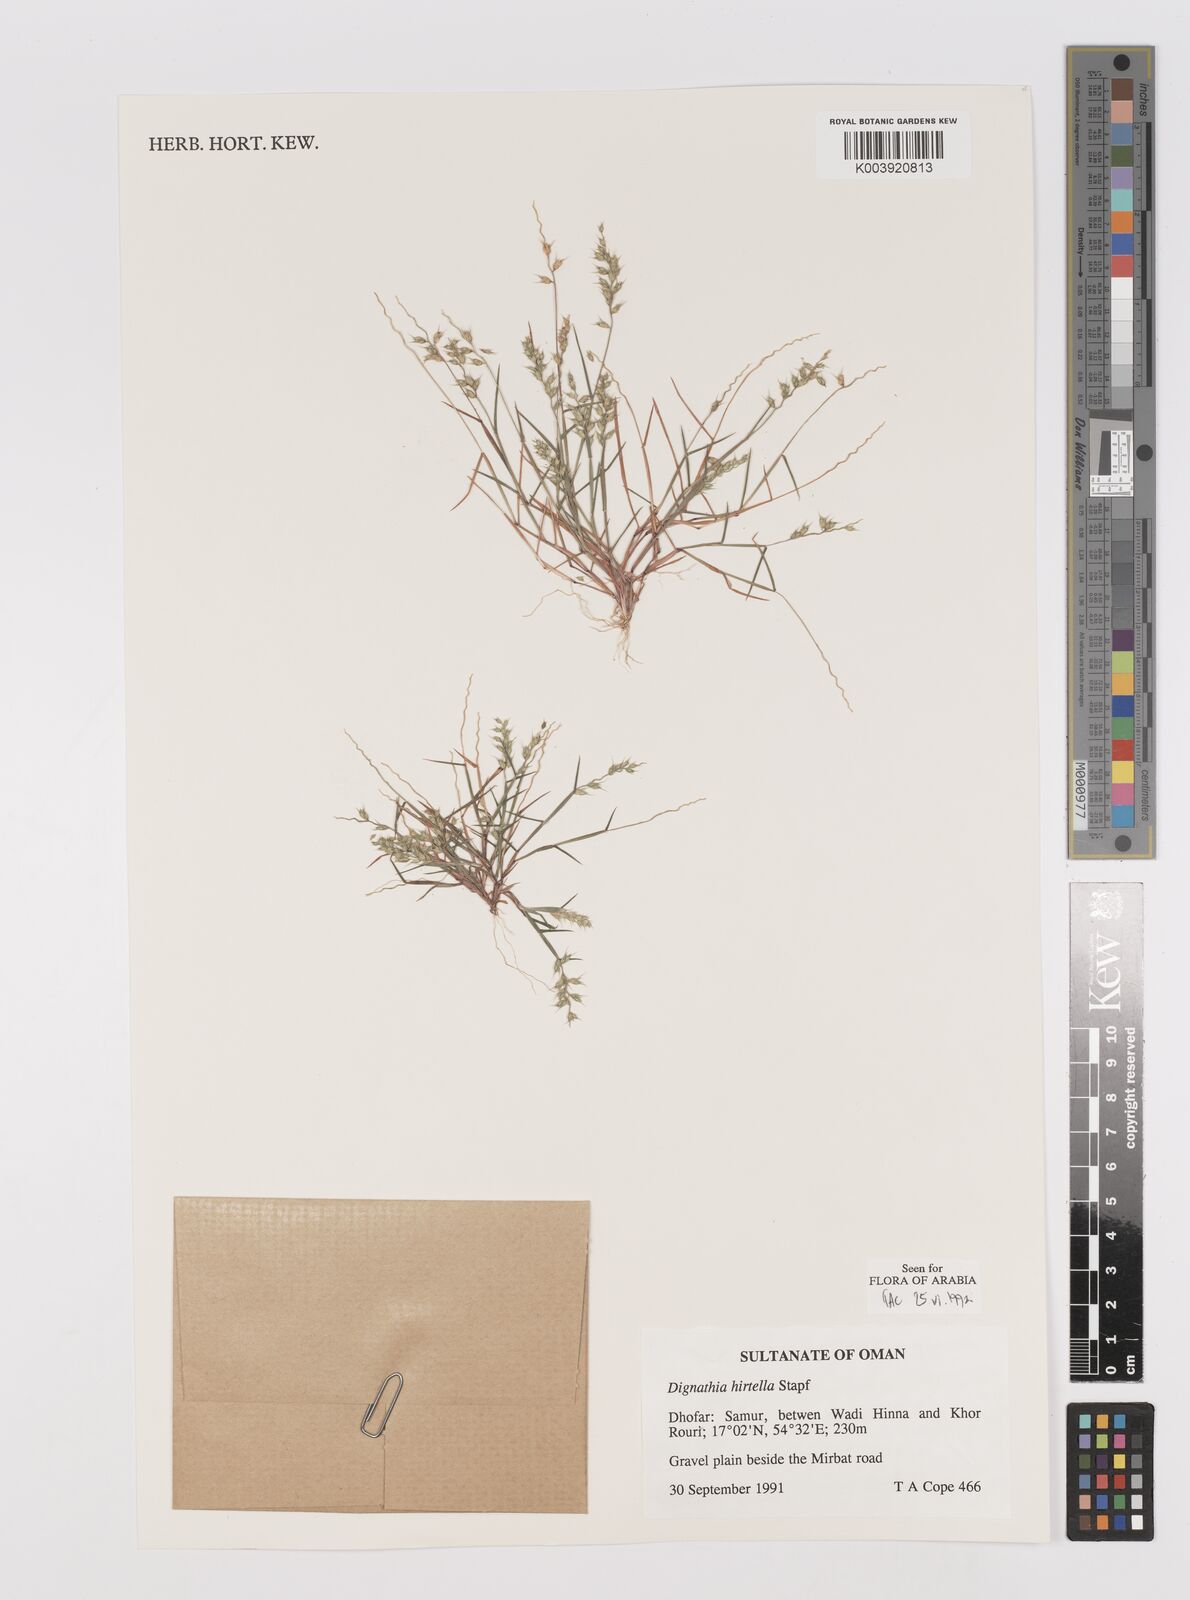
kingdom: Plantae
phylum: Tracheophyta
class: Liliopsida
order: Poales
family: Poaceae
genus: Dignathia
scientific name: Dignathia hirtella
